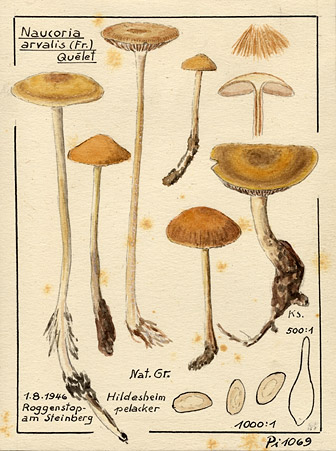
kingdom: Fungi
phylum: Basidiomycota
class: Agaricomycetes
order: Agaricales
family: Strophariaceae
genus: Agrocybe
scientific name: Agrocybe arvalis
